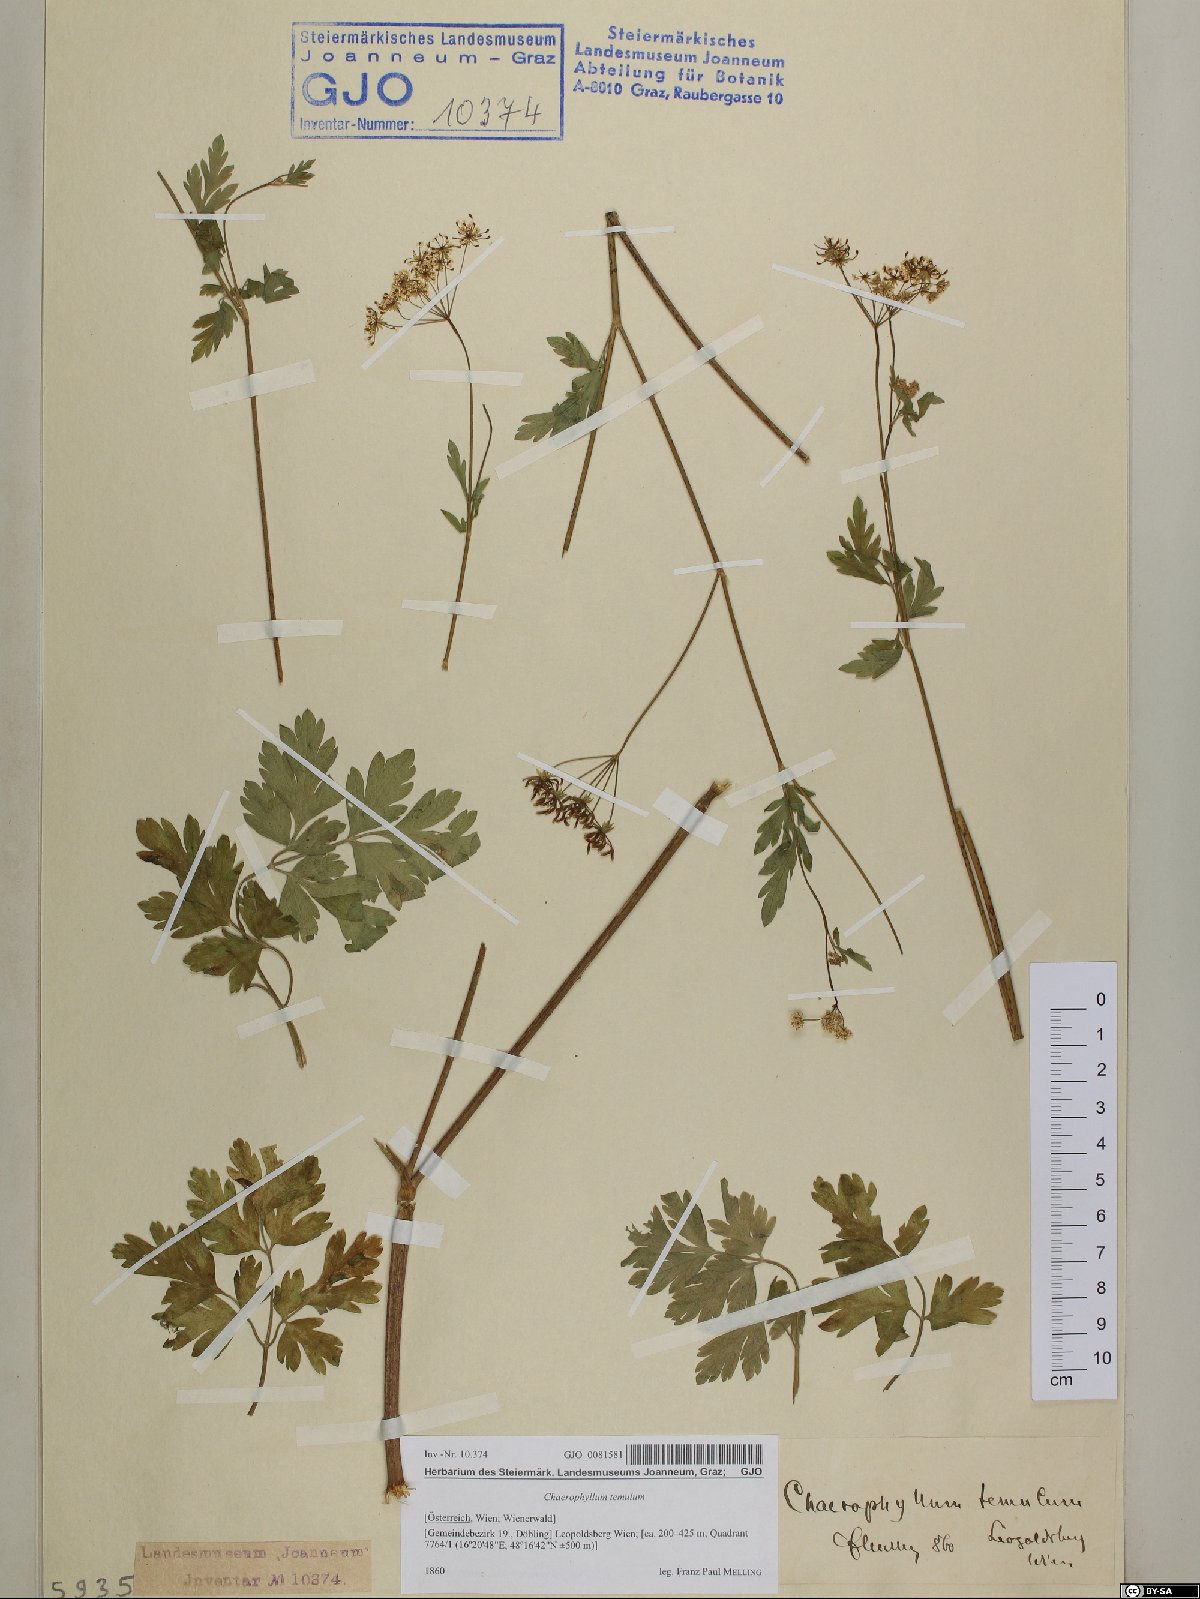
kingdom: Plantae
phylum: Tracheophyta
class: Magnoliopsida
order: Apiales
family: Apiaceae
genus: Chaerophyllum
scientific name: Chaerophyllum temulum
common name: Rough chervil
